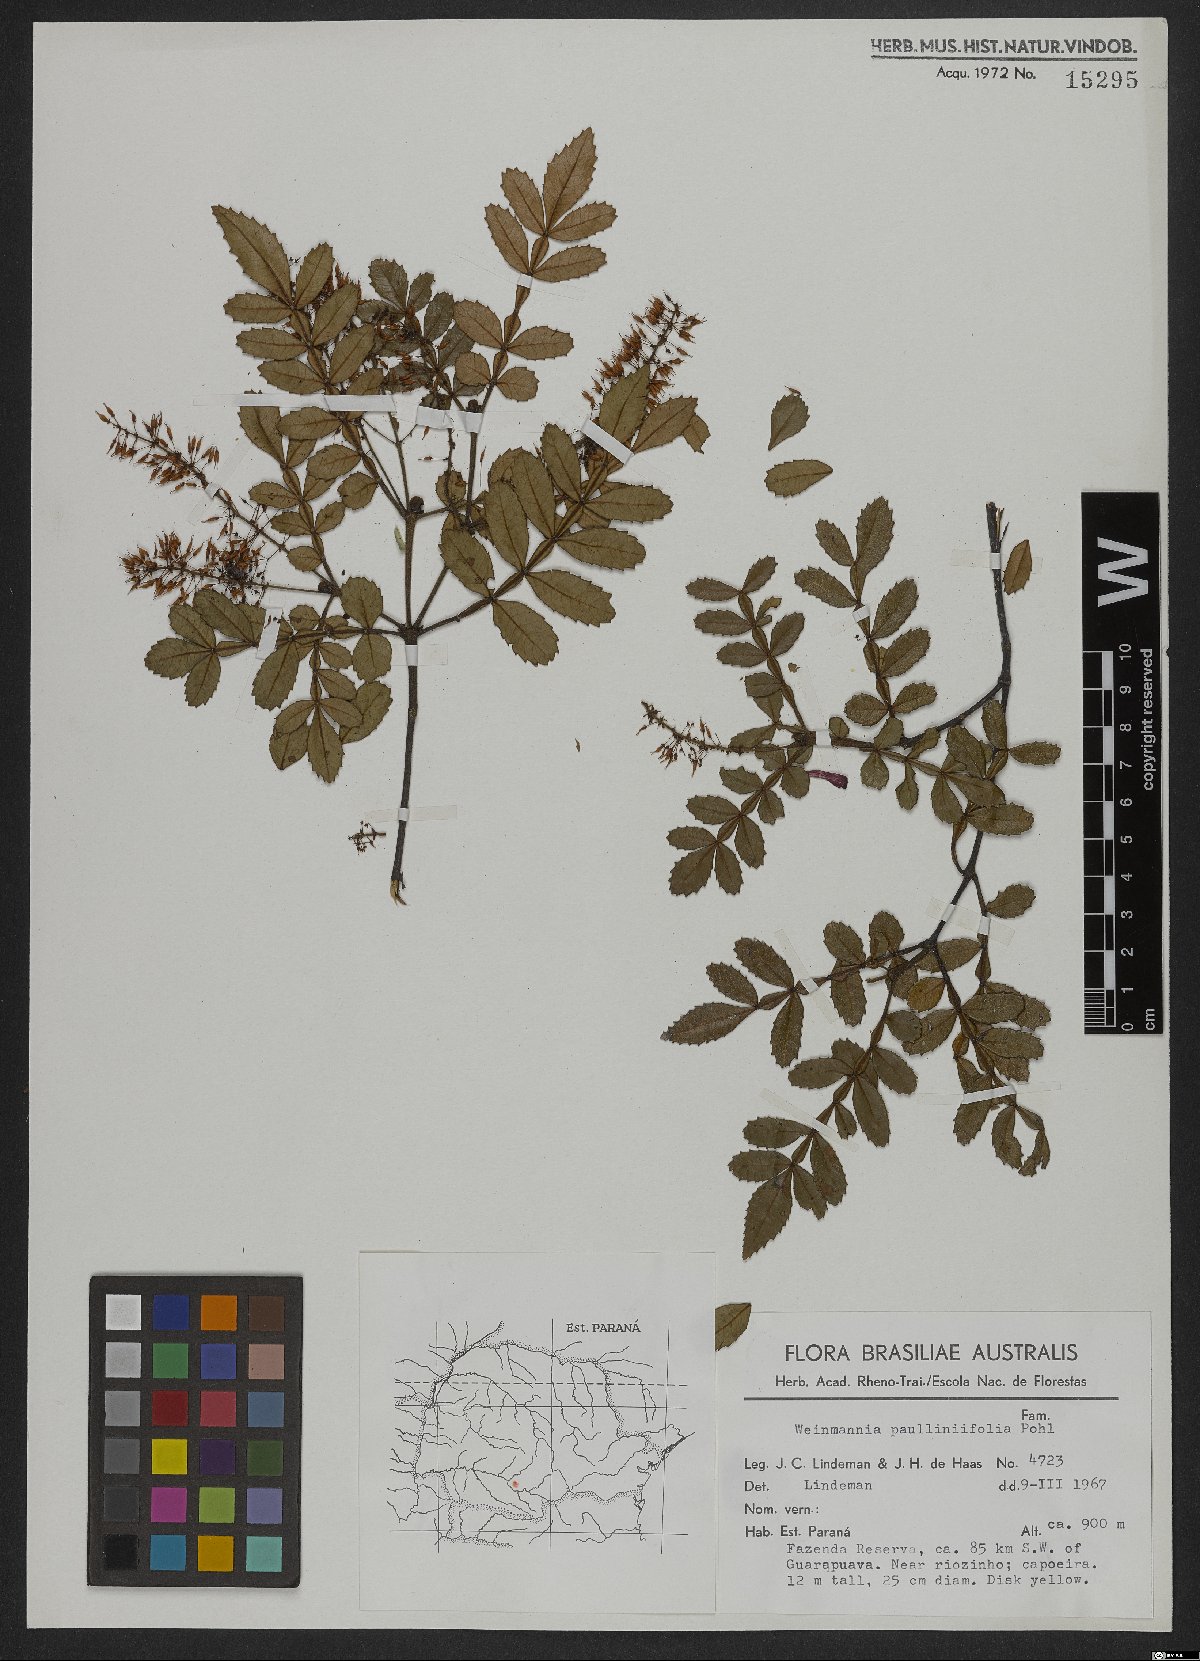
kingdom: Plantae
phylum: Tracheophyta
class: Magnoliopsida
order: Oxalidales
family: Cunoniaceae
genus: Weinmannia
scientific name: Weinmannia paullinifolia
